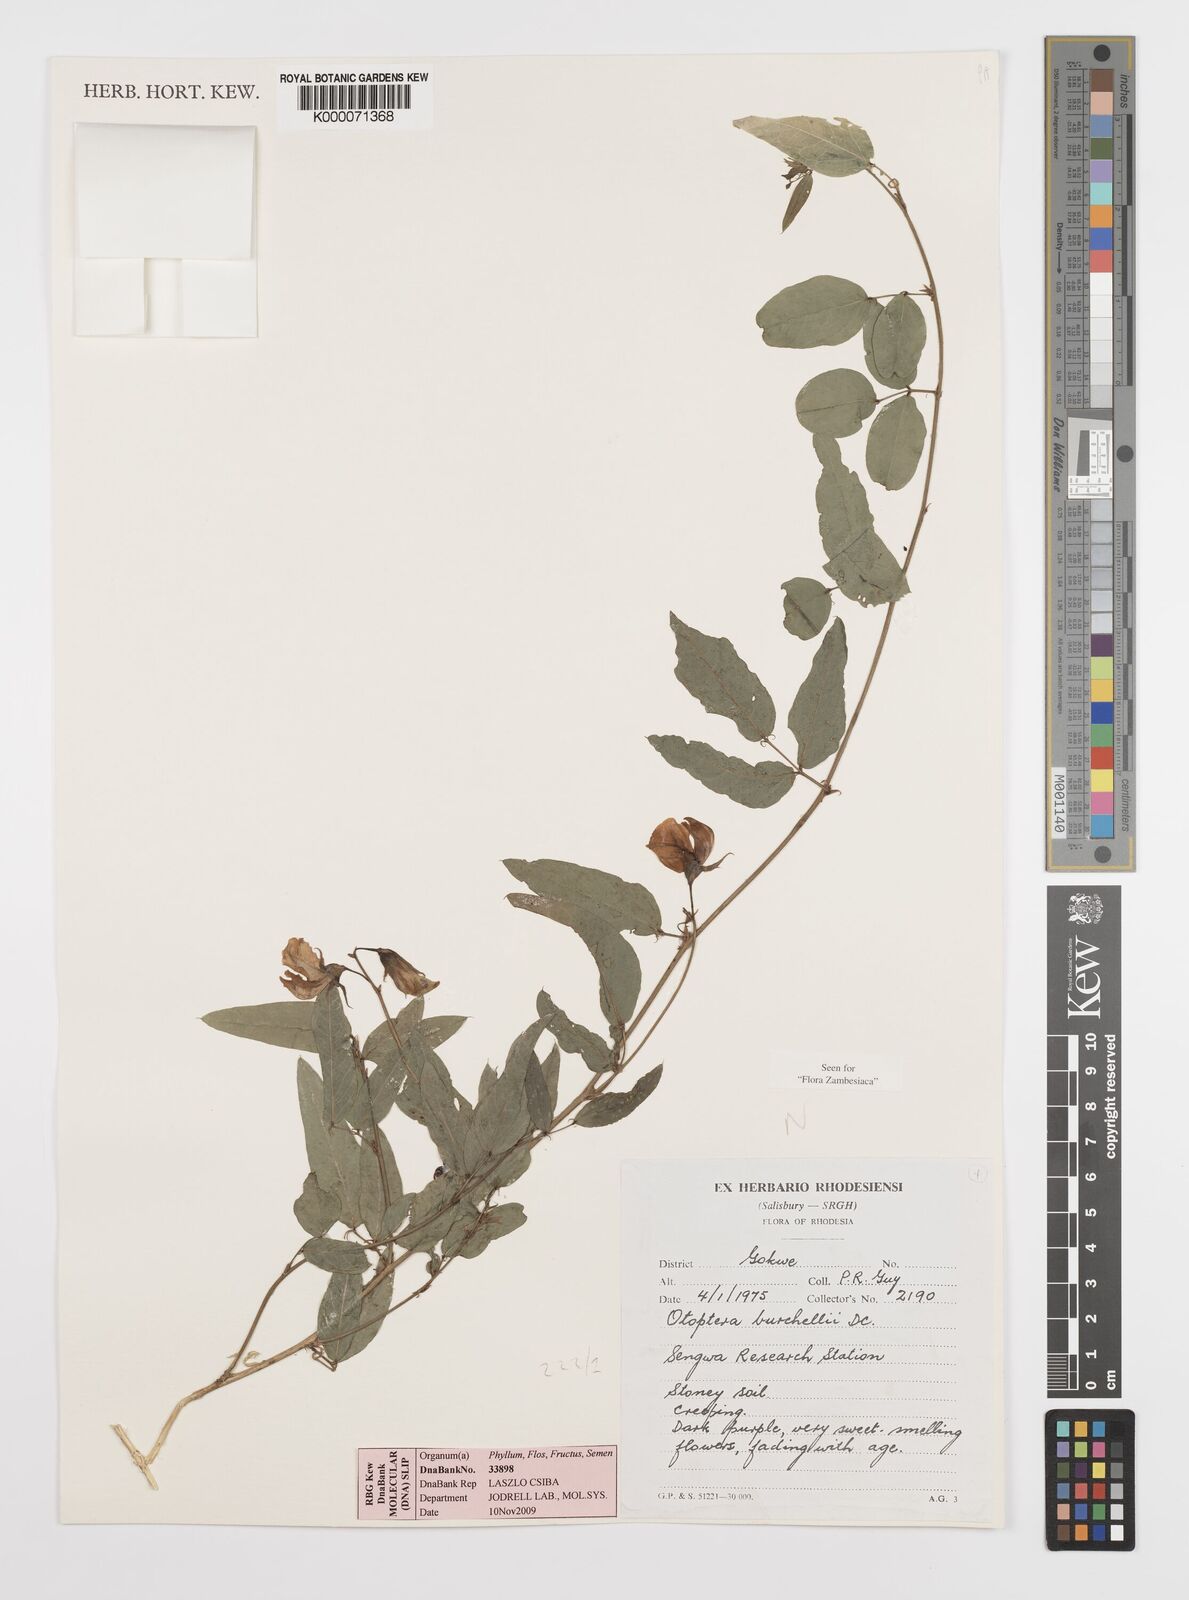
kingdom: Plantae
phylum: Tracheophyta
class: Magnoliopsida
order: Fabales
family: Fabaceae
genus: Otoptera
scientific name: Otoptera burchellii
